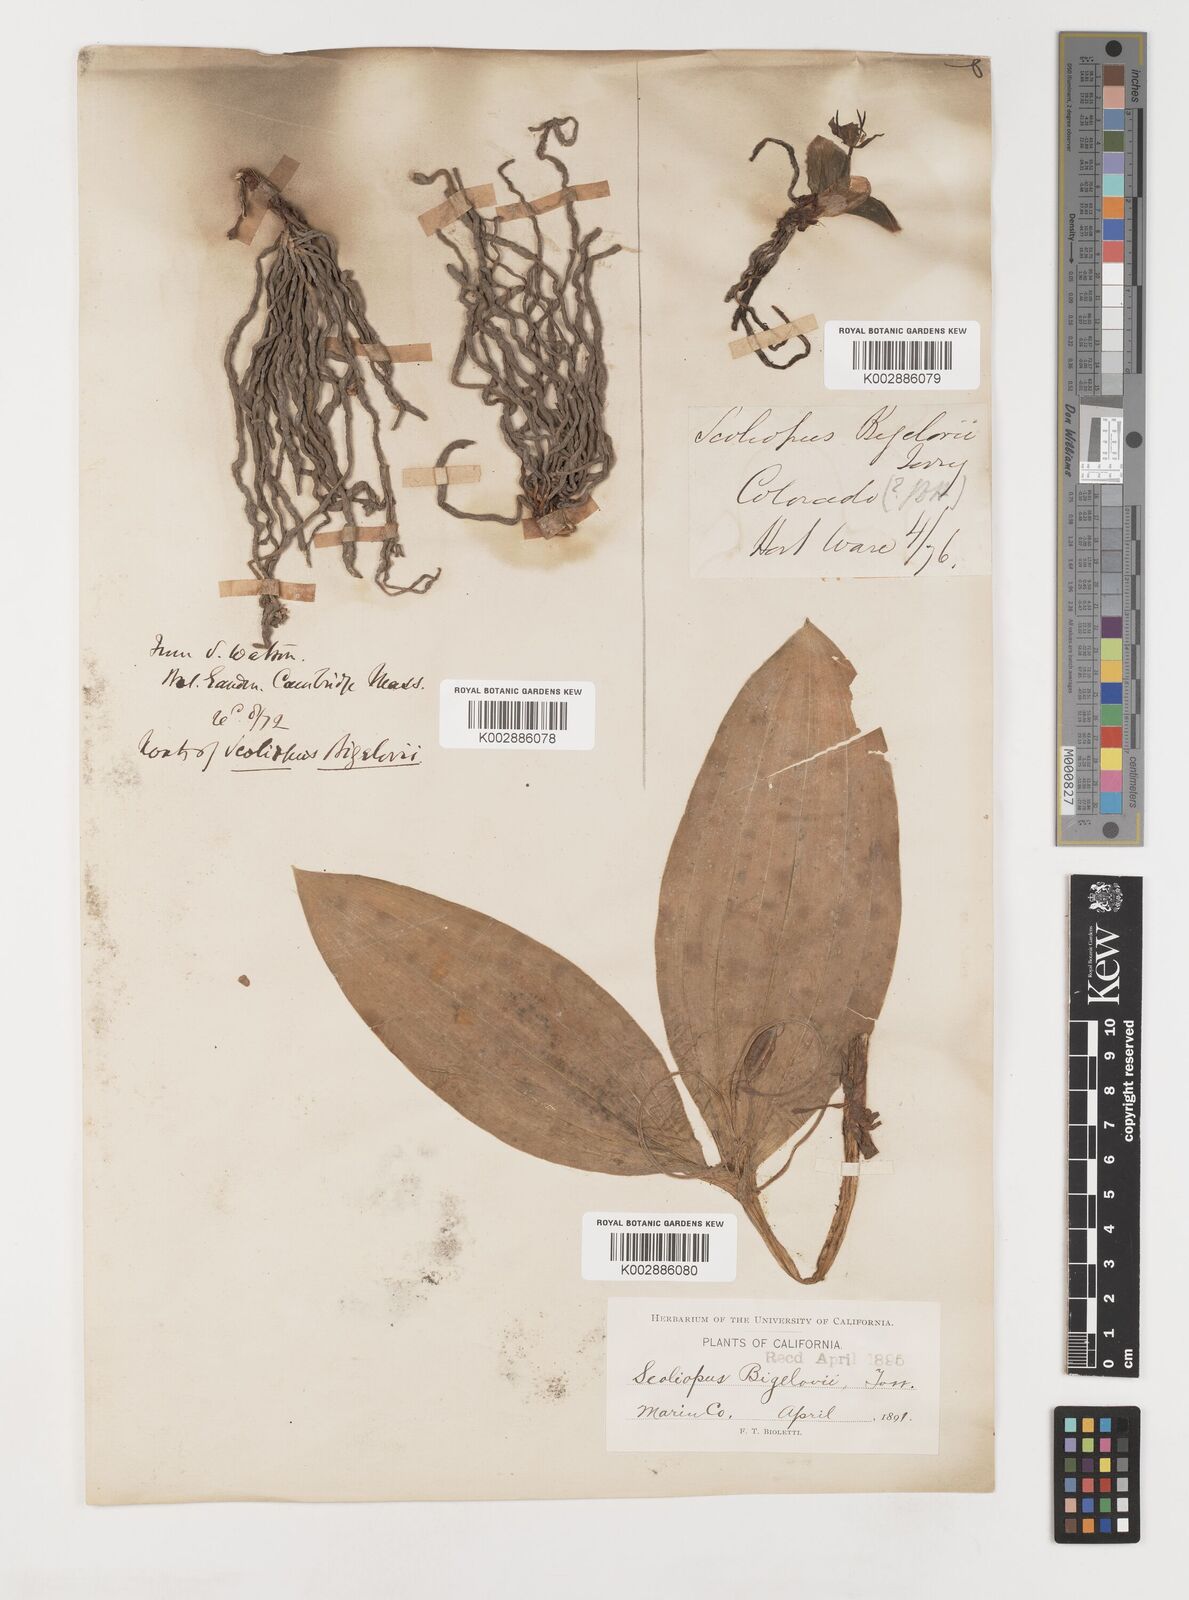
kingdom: Plantae
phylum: Tracheophyta
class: Liliopsida
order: Liliales
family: Liliaceae
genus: Scoliopus
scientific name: Scoliopus bigelovii
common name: Foetid adder's-tongue
